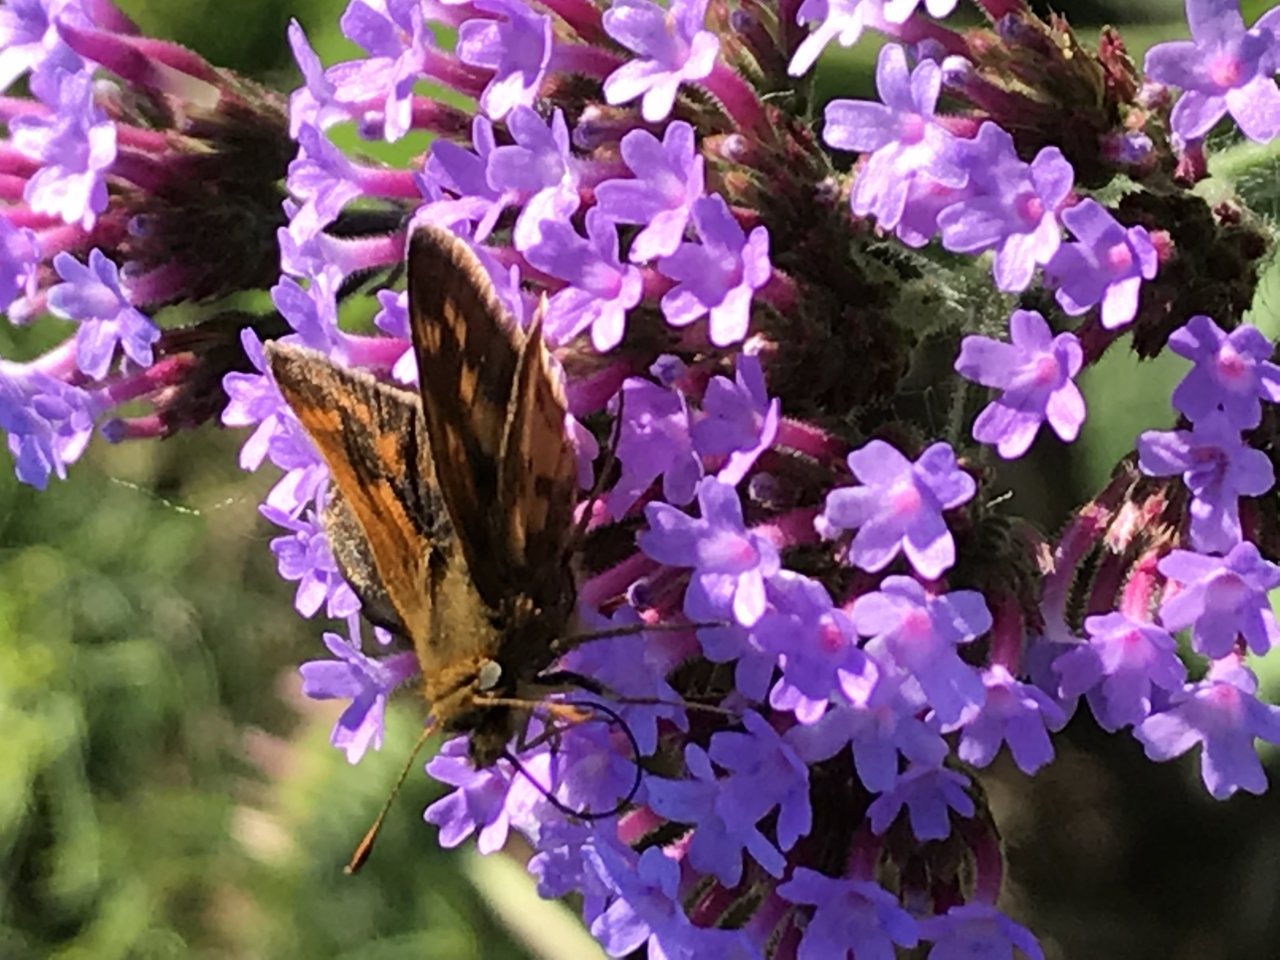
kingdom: Animalia
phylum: Arthropoda
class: Insecta
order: Lepidoptera
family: Hesperiidae
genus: Polites
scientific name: Polites coras
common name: Peck's Skipper
